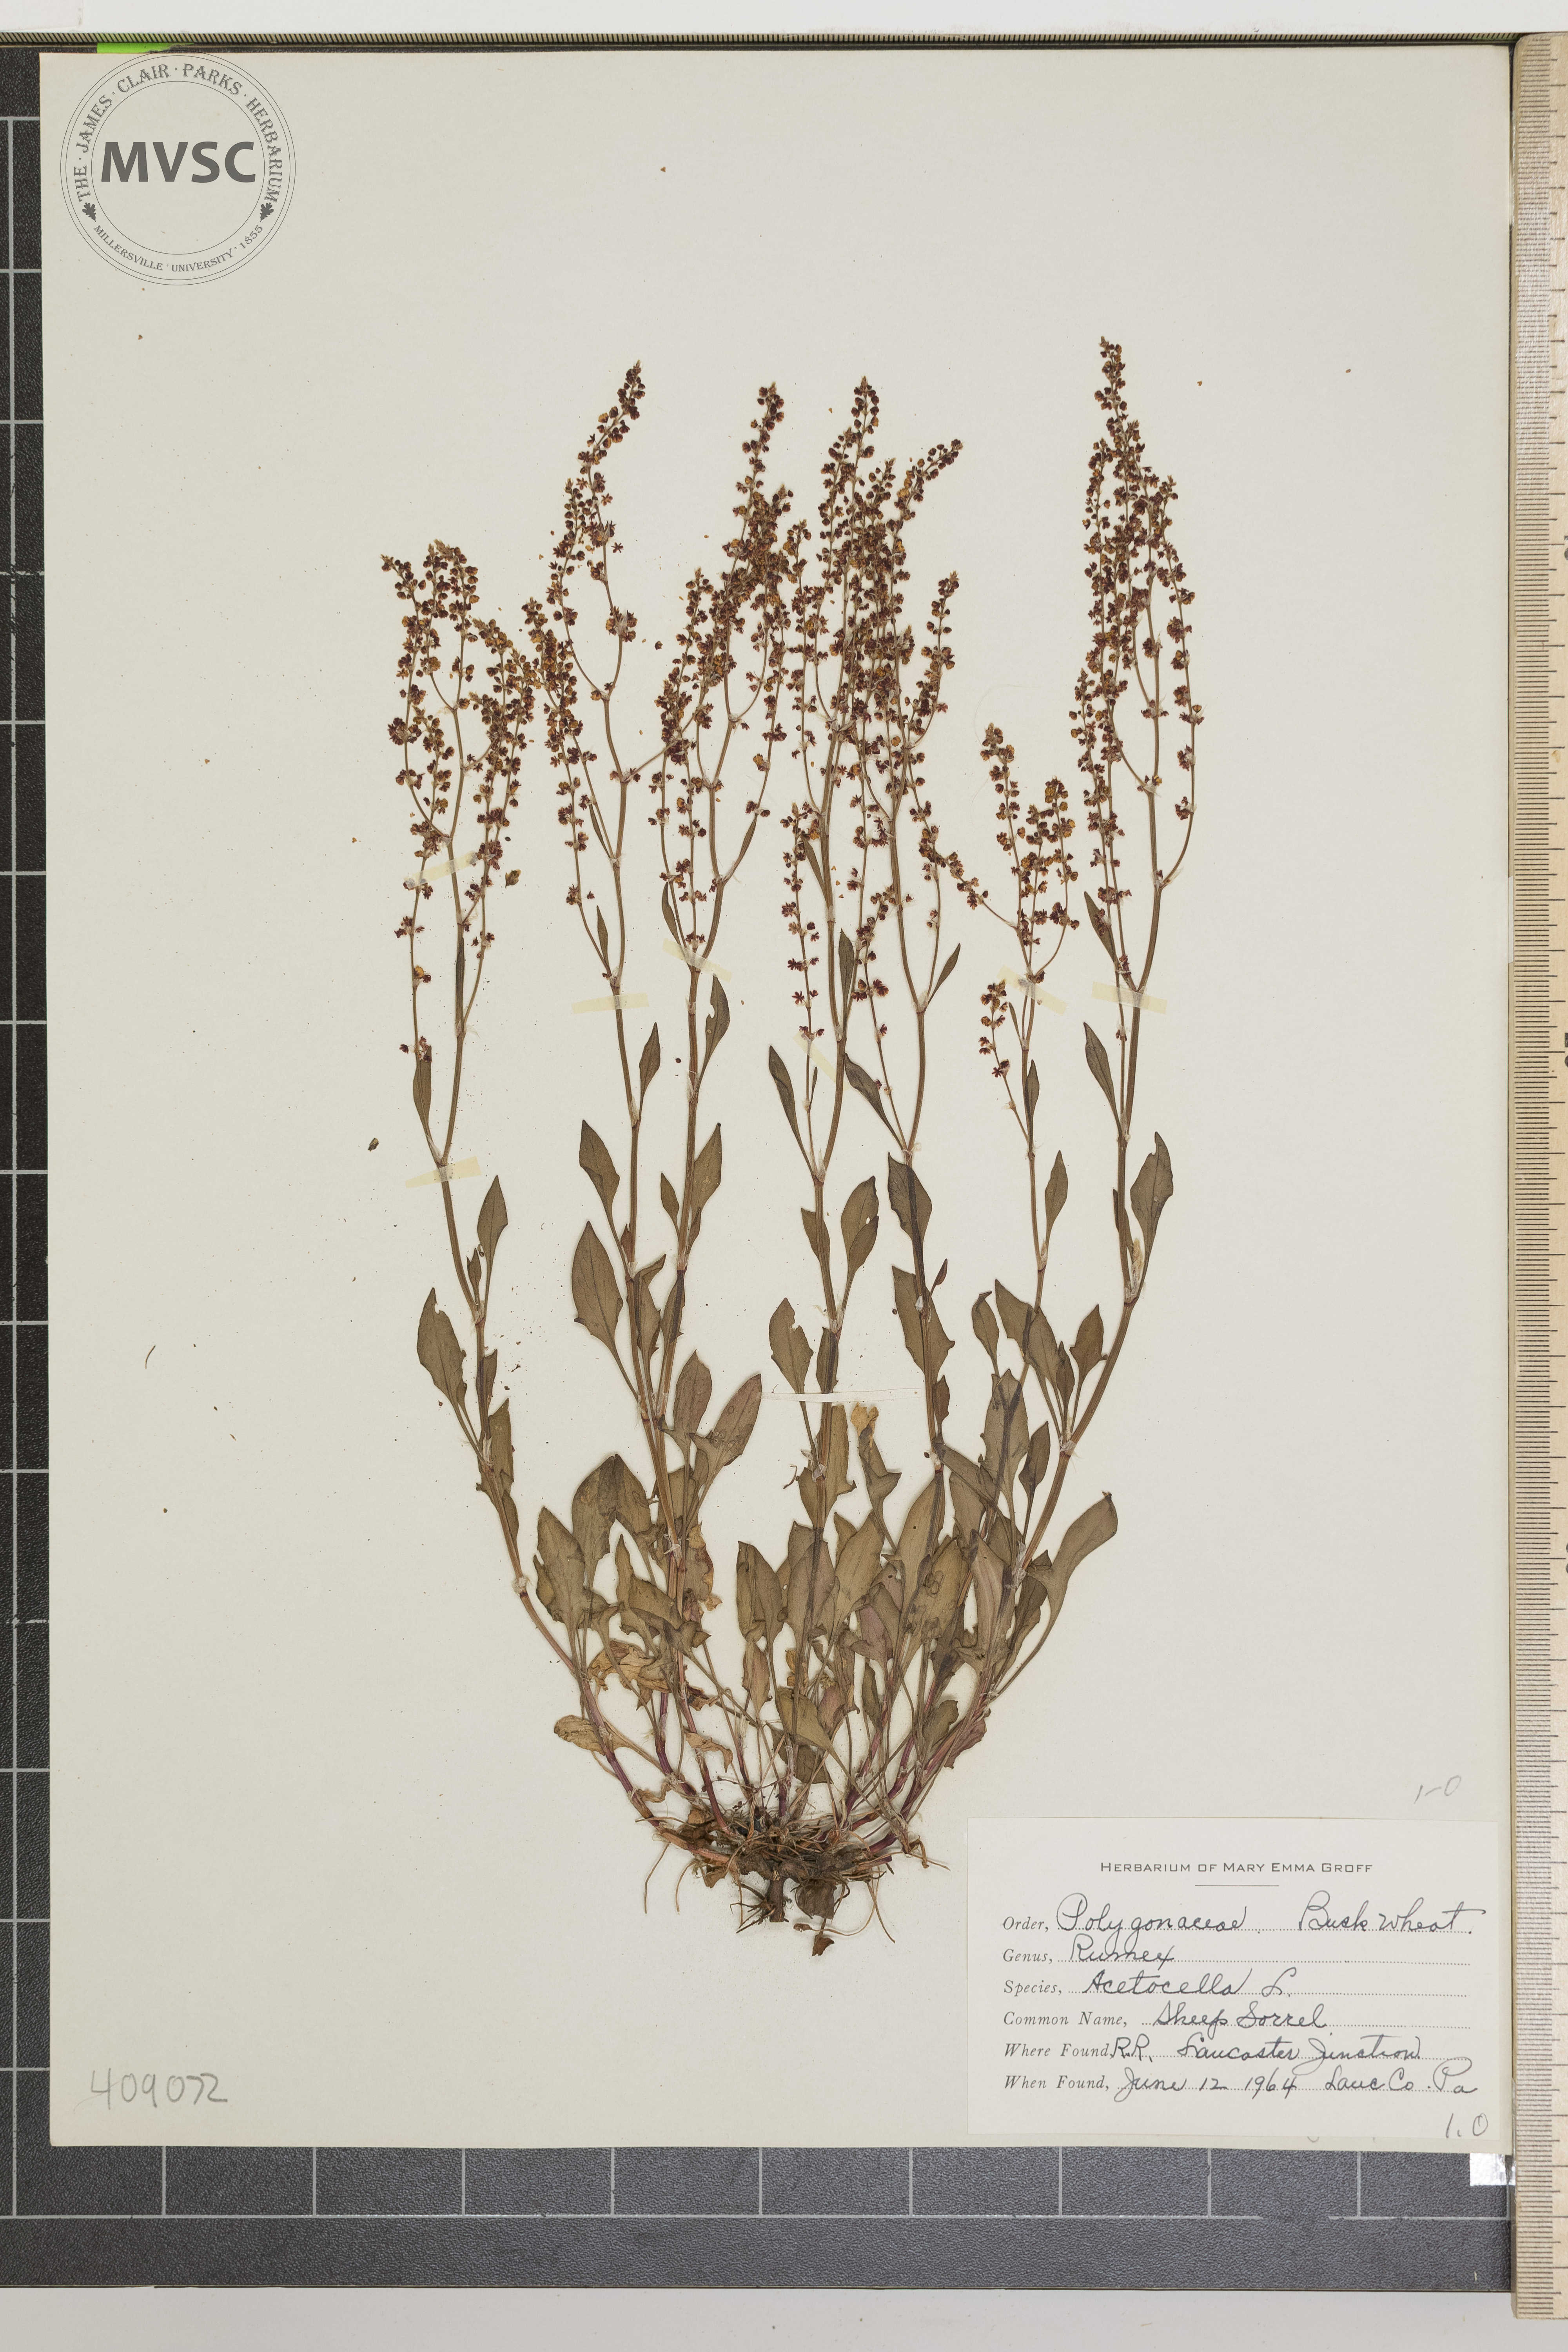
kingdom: Plantae
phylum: Tracheophyta
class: Magnoliopsida
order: Caryophyllales
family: Polygonaceae
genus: Rumex
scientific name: Rumex acetosella
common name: Sheep Sorrel
